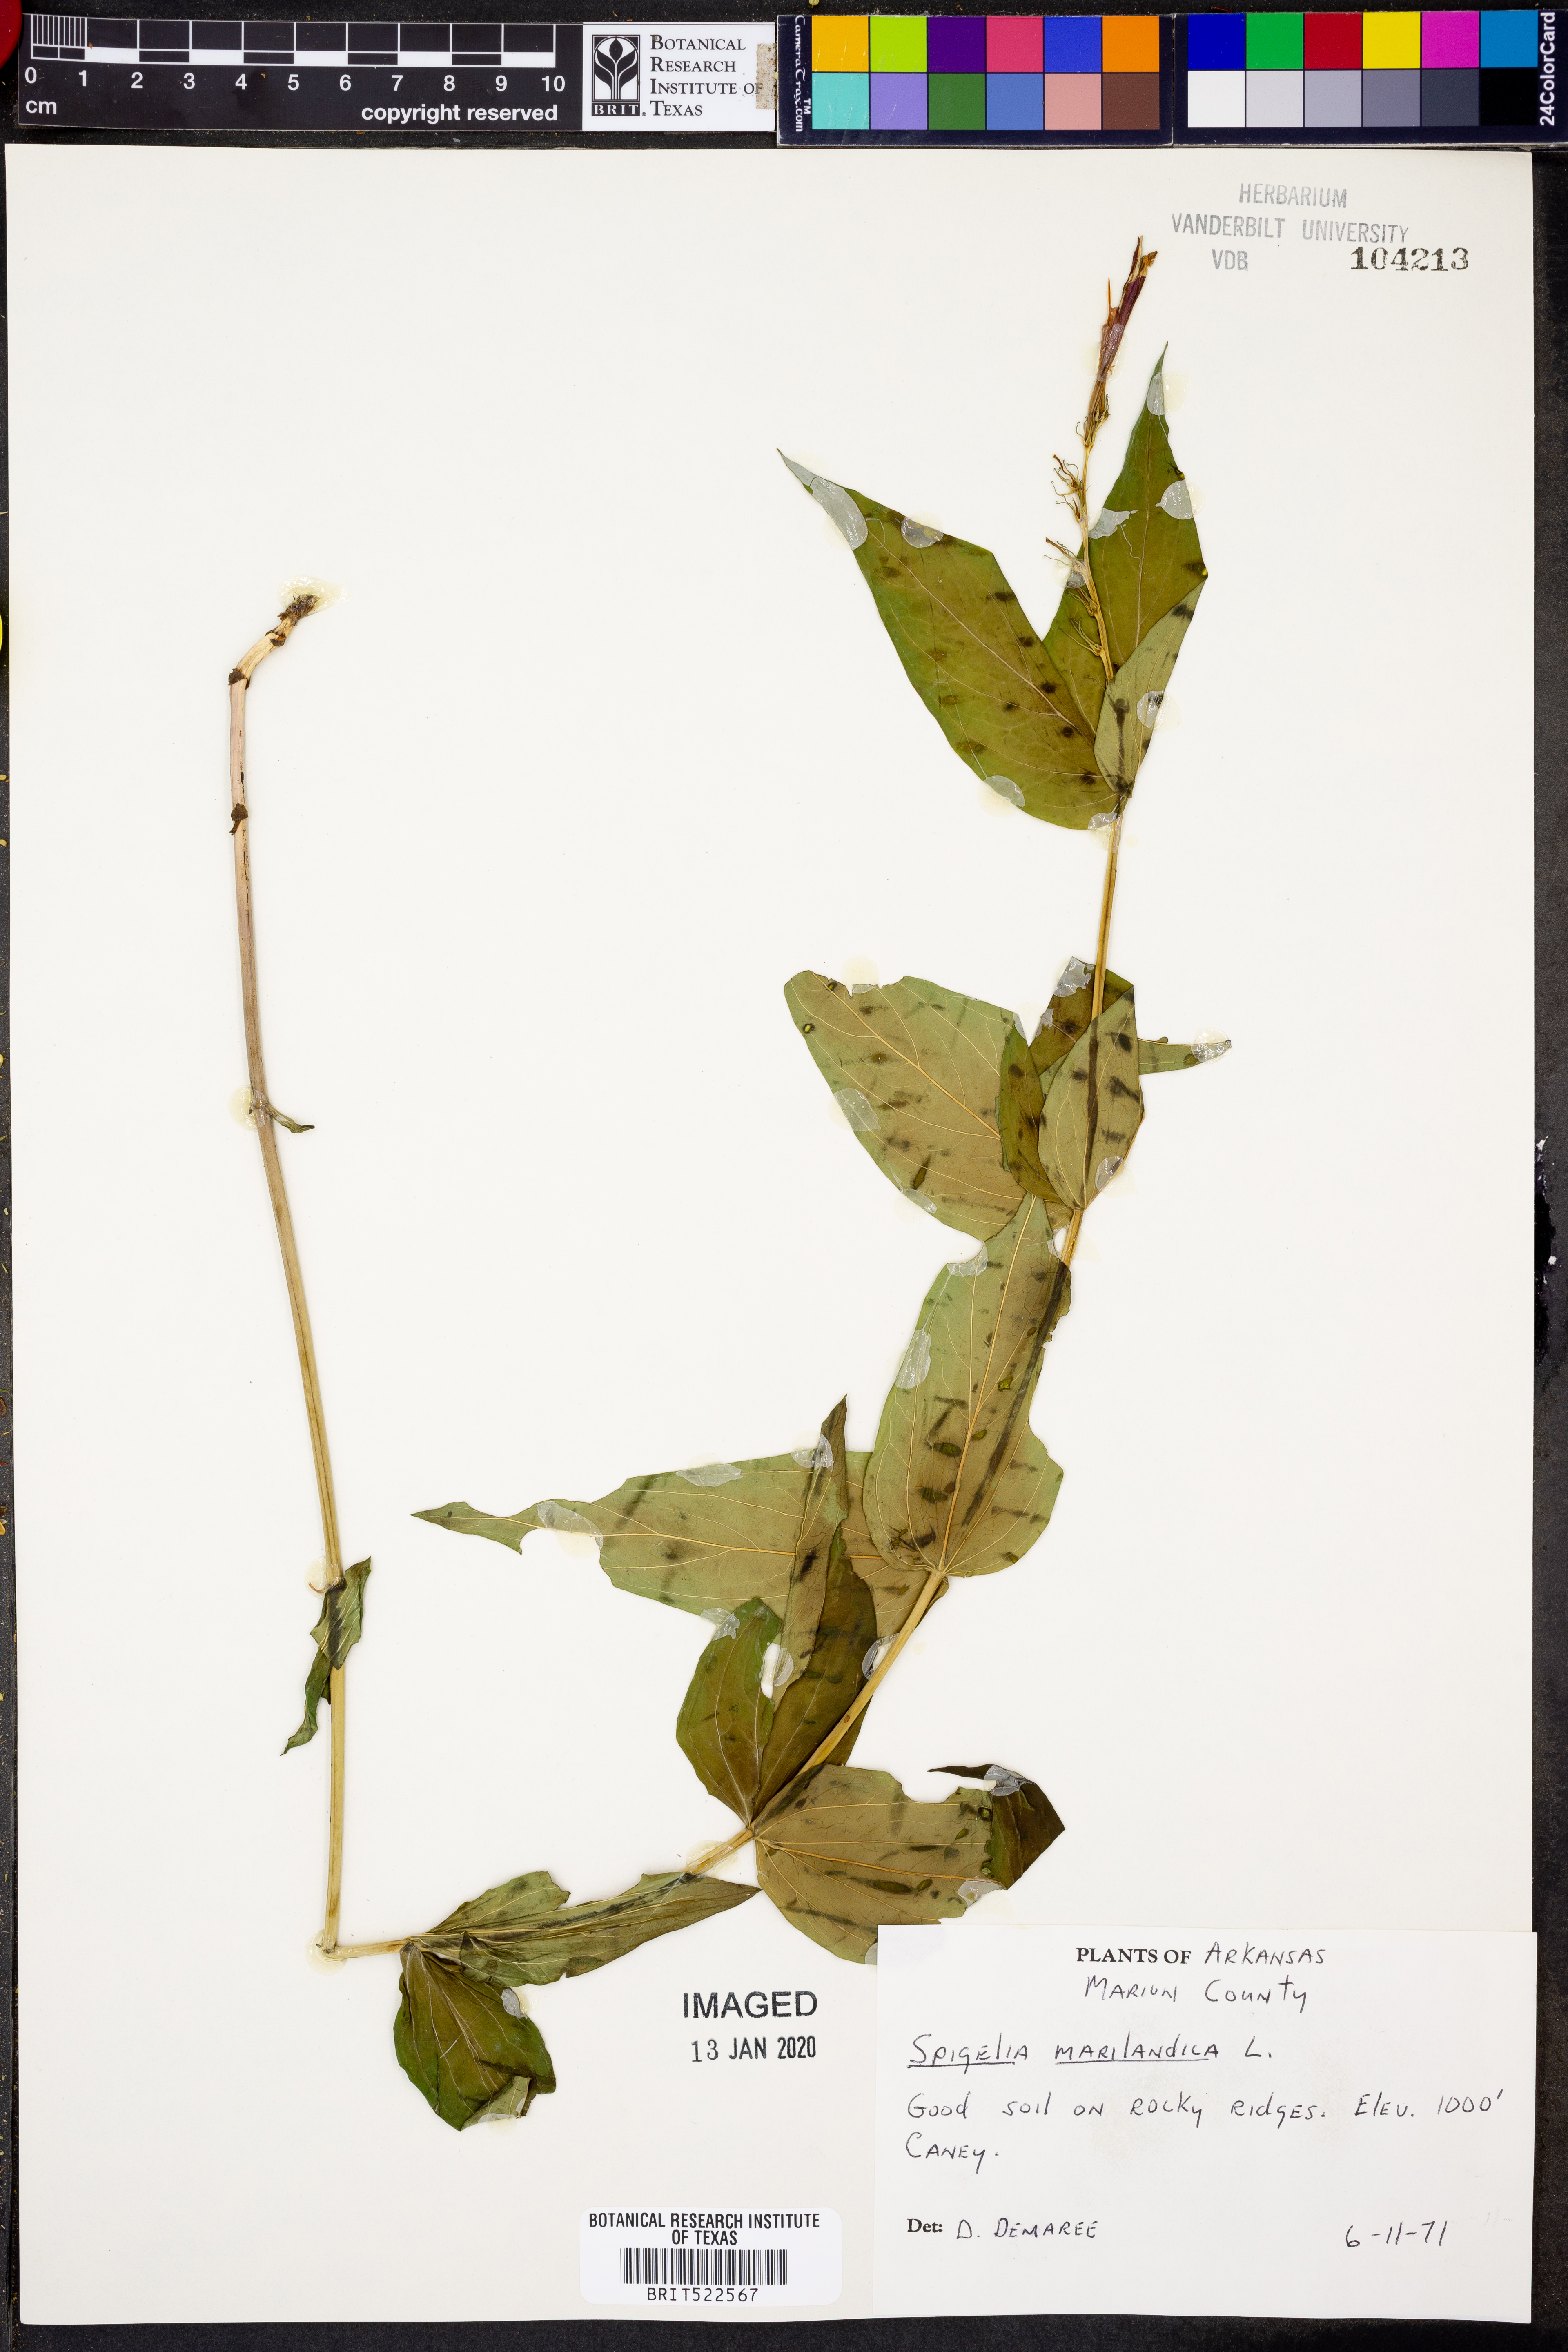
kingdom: Plantae
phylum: Tracheophyta
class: Magnoliopsida
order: Gentianales
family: Loganiaceae
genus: Spigelia
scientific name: Spigelia marilandica
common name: Indian-pink
